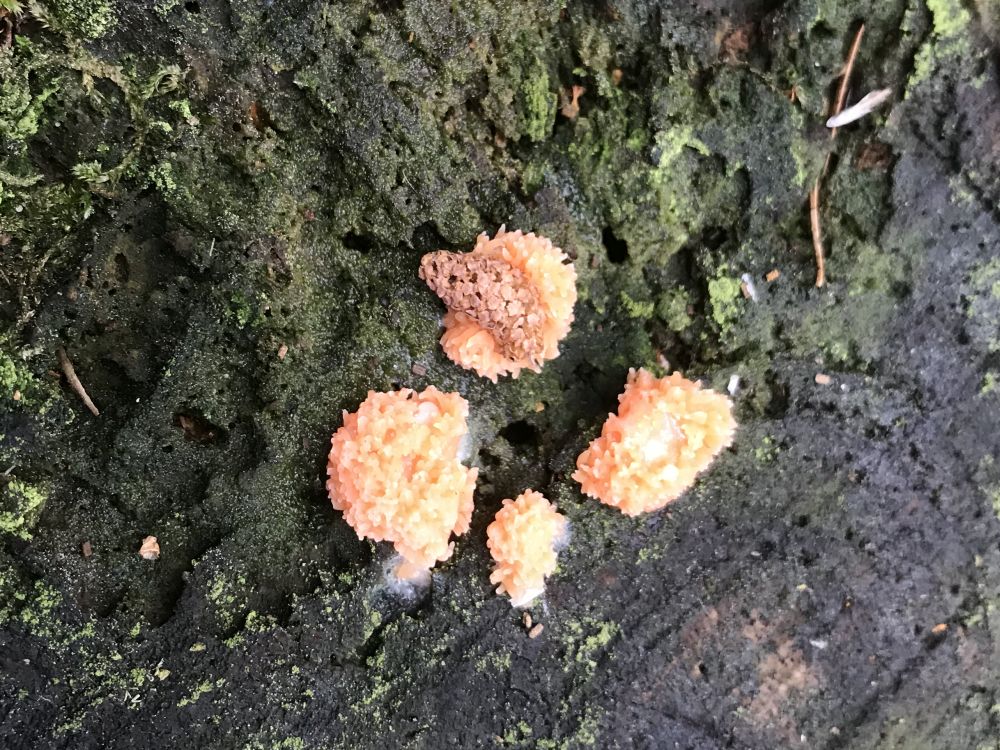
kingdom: Protozoa
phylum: Mycetozoa
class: Myxomycetes
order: Cribrariales
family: Tubiferaceae
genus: Tubifera
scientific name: Tubifera ferruginosa
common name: kanel-støvrør
